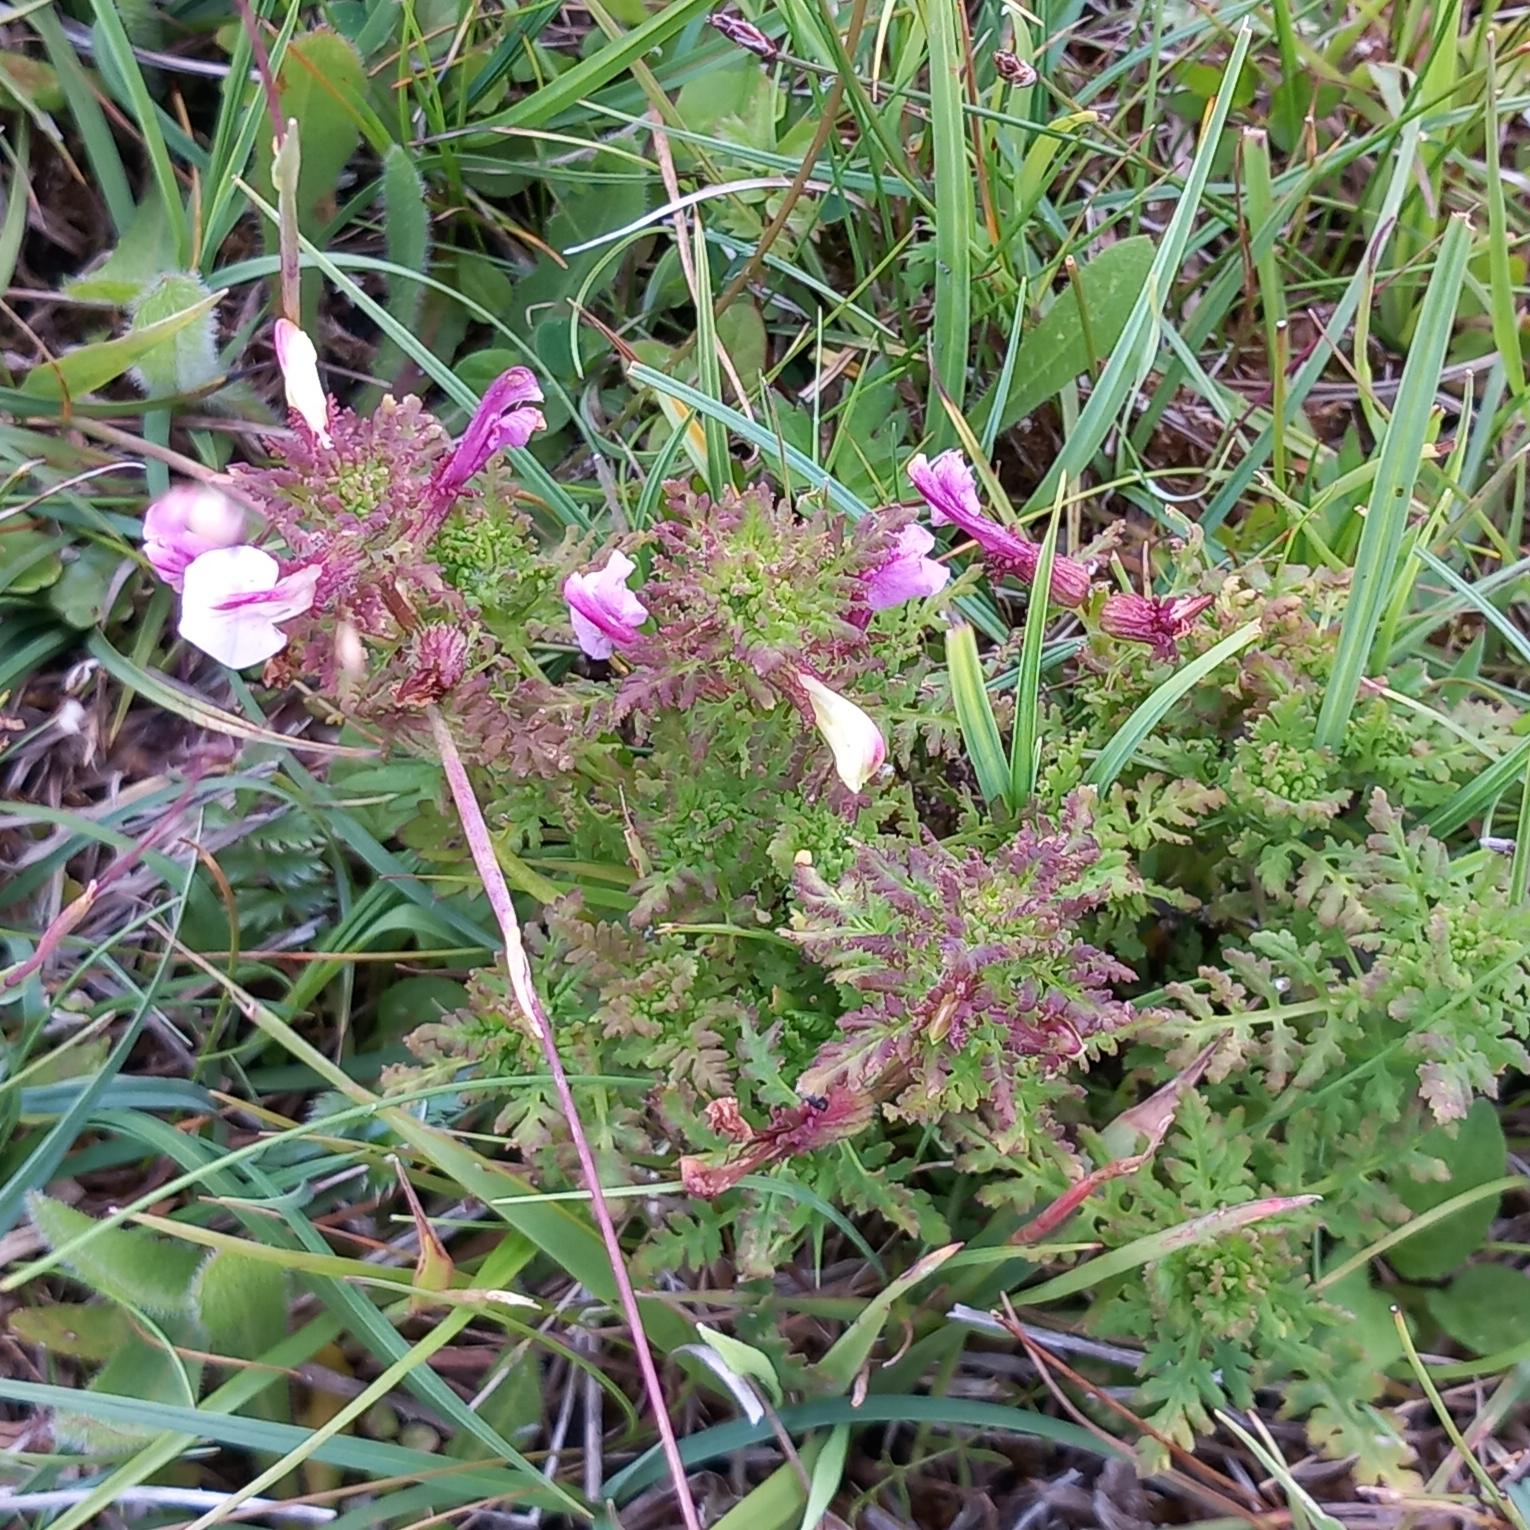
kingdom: Plantae
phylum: Tracheophyta
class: Magnoliopsida
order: Lamiales
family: Orobanchaceae
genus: Pedicularis
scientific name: Pedicularis palustris
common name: Eng-troldurt
